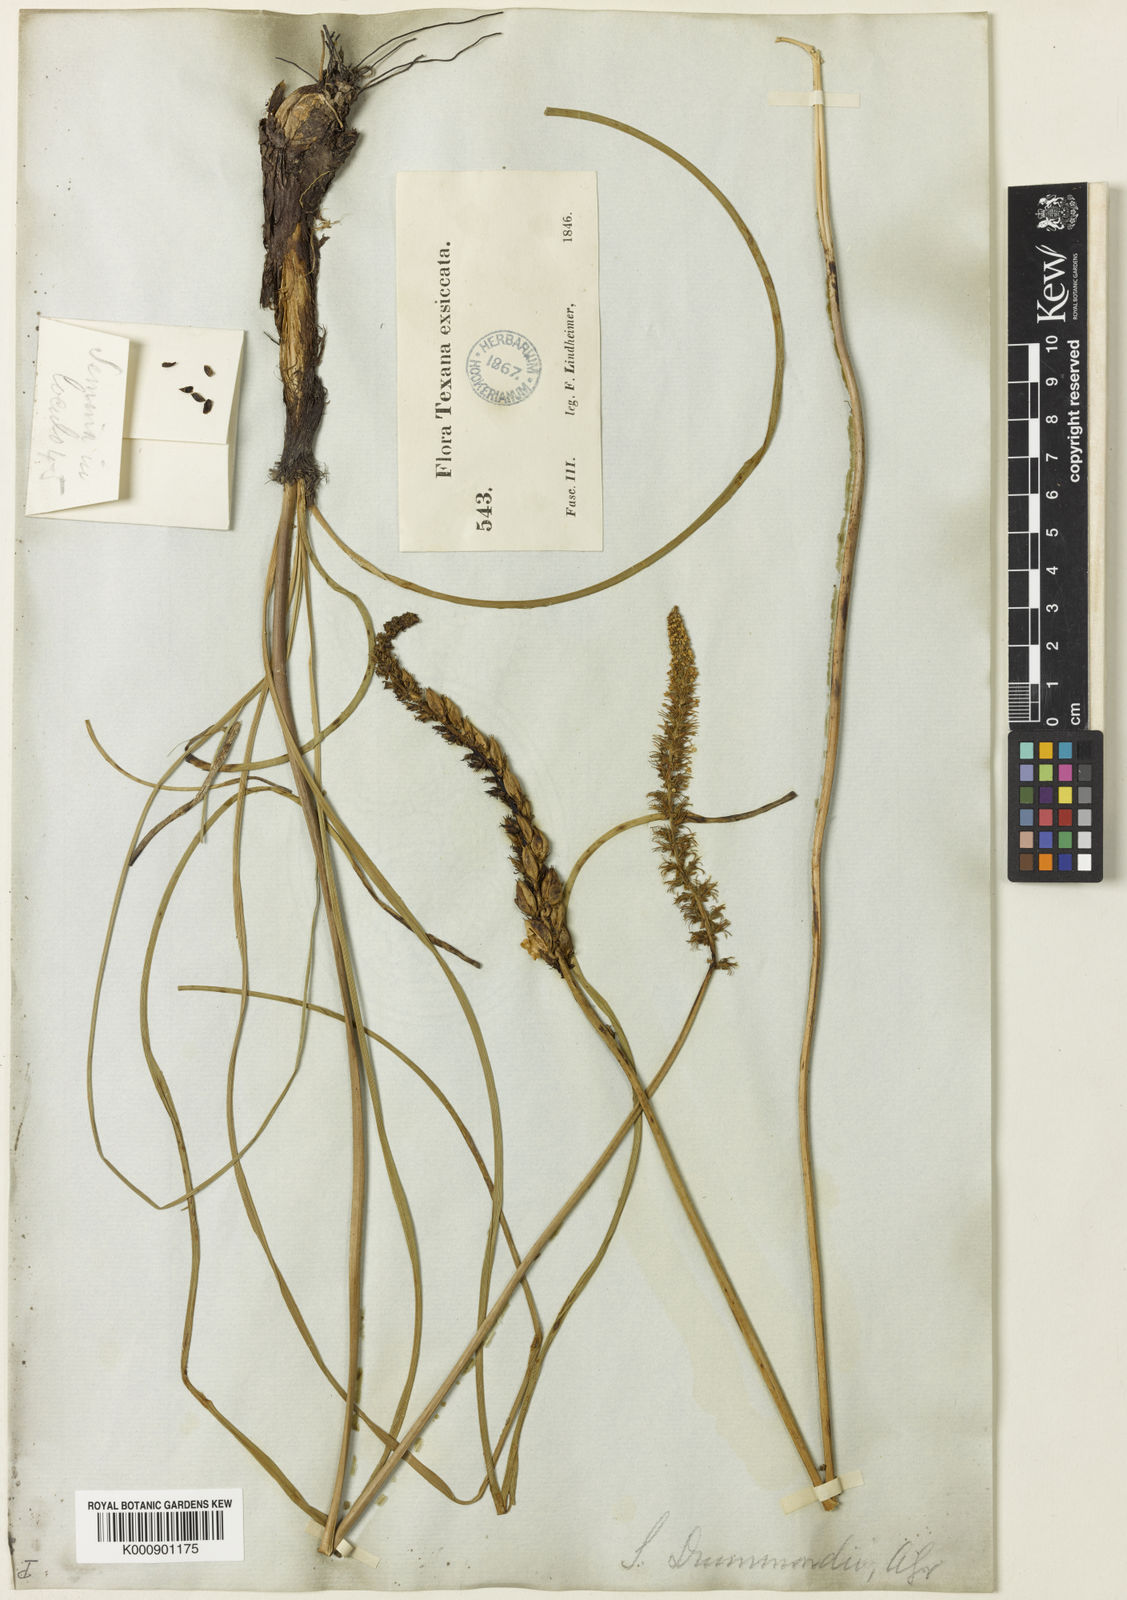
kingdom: Plantae
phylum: Tracheophyta
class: Liliopsida
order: Liliales
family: Melanthiaceae
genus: Schoenocaulon
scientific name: Schoenocaulon texanum
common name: Texas feather-shank
